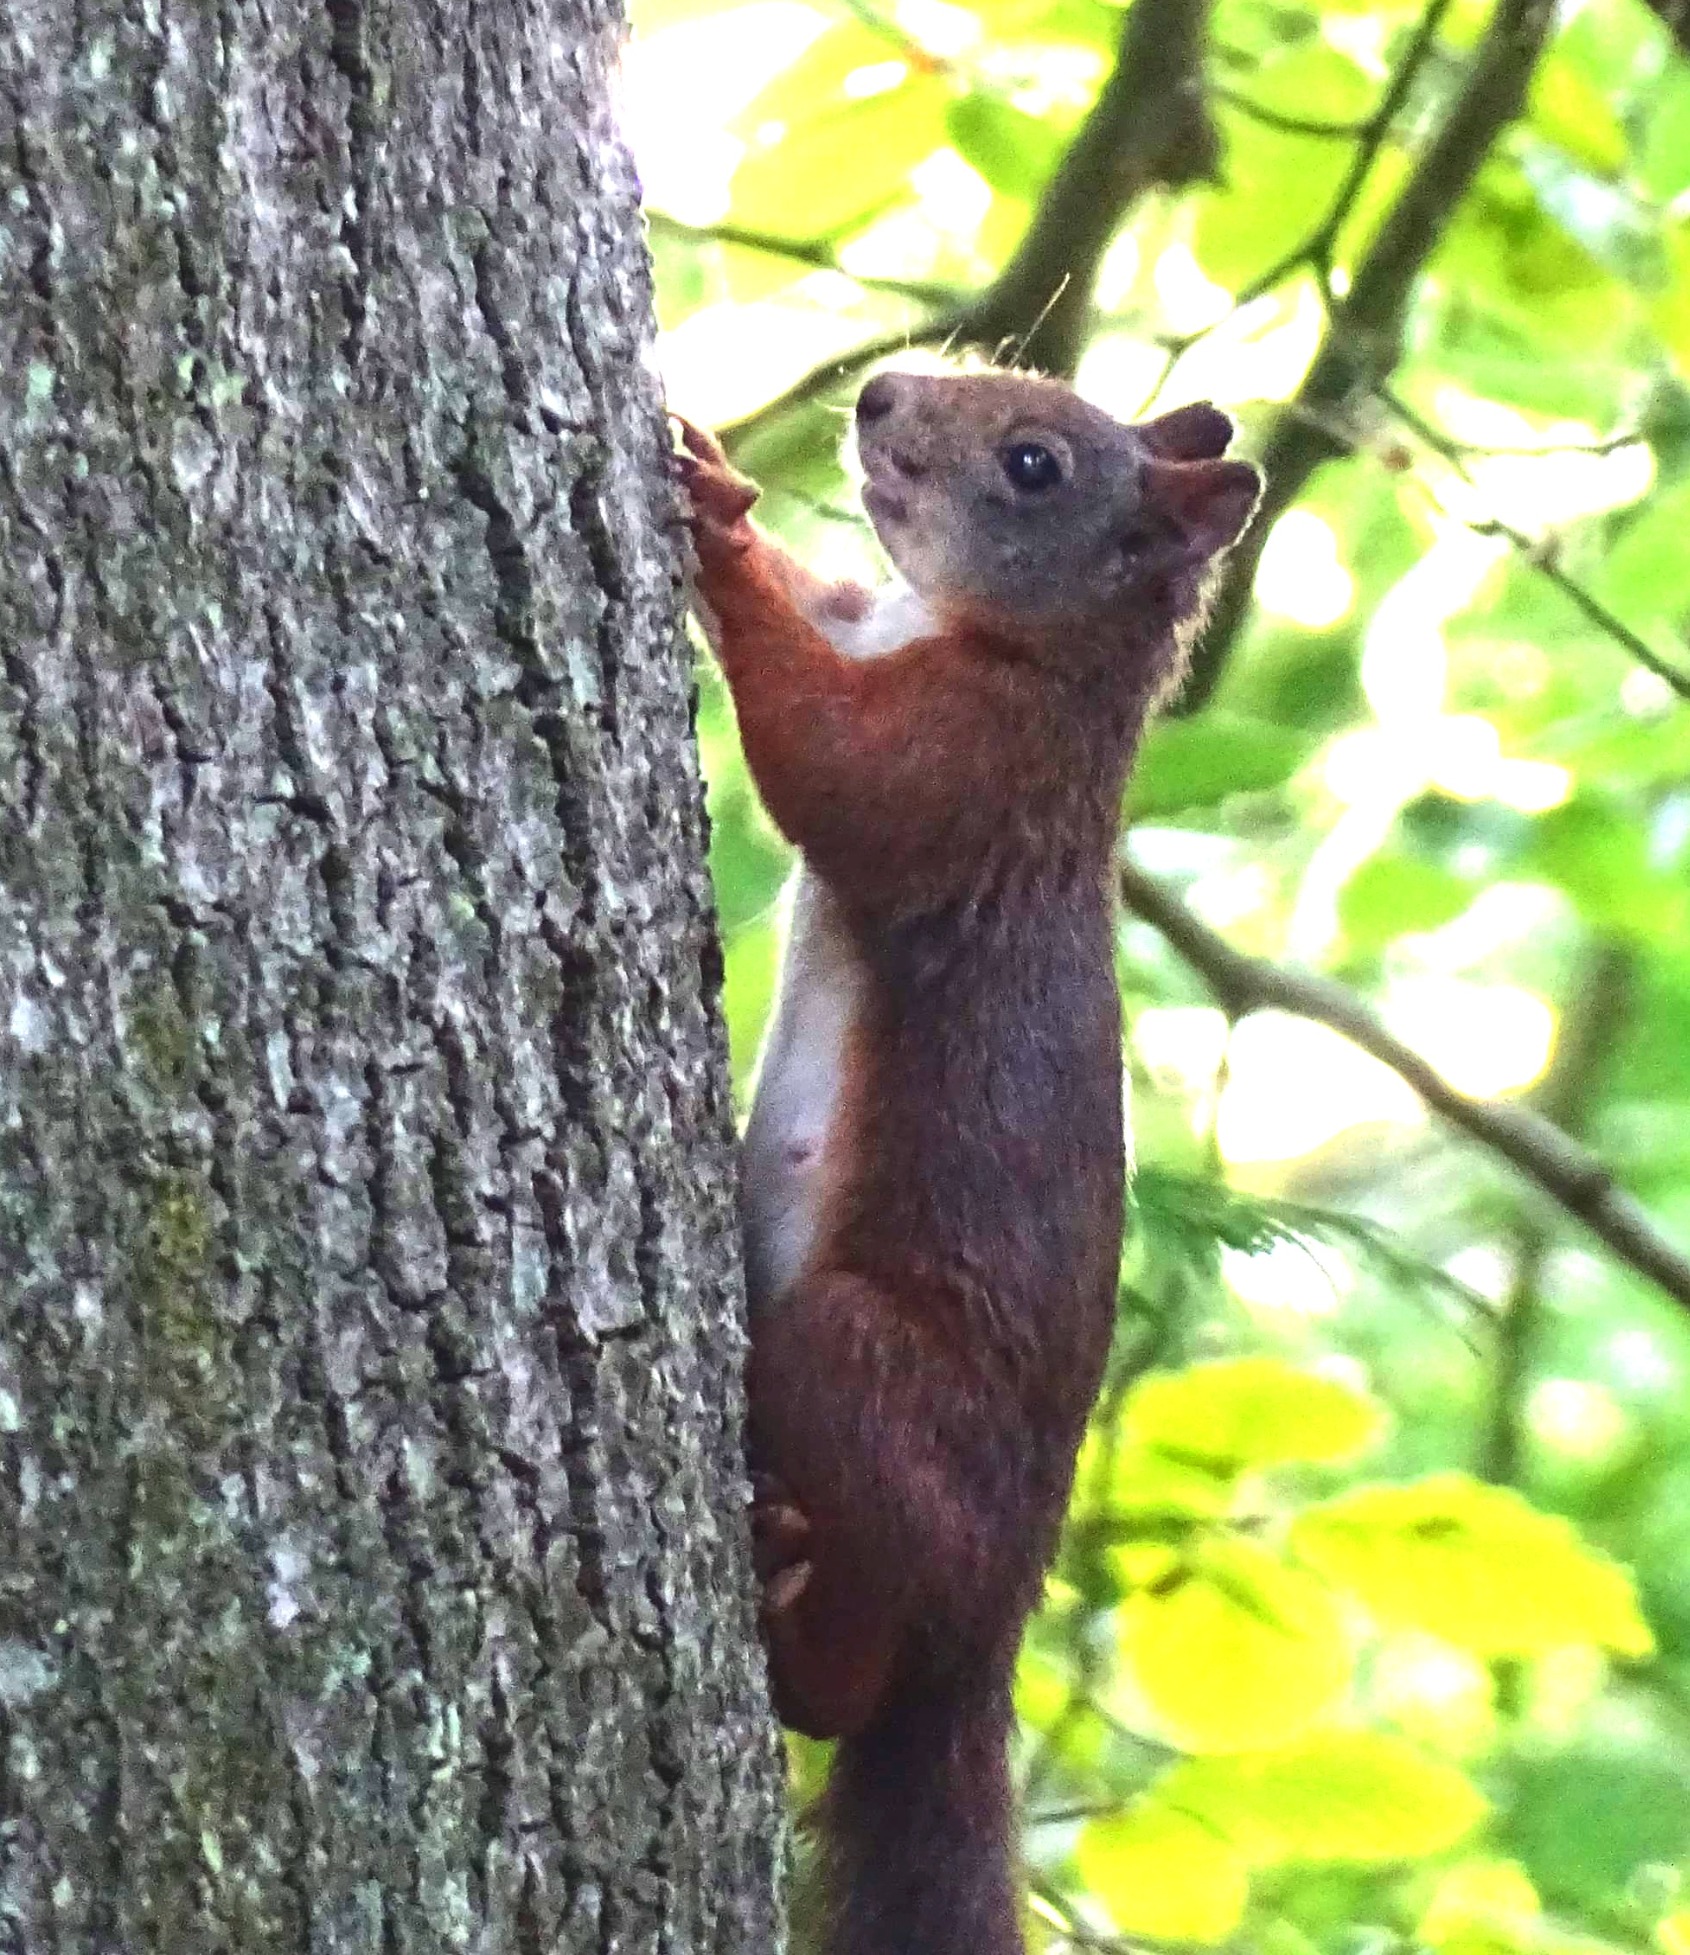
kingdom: Animalia
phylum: Chordata
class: Mammalia
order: Rodentia
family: Sciuridae
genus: Sciurus
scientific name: Sciurus vulgaris
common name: Egern
